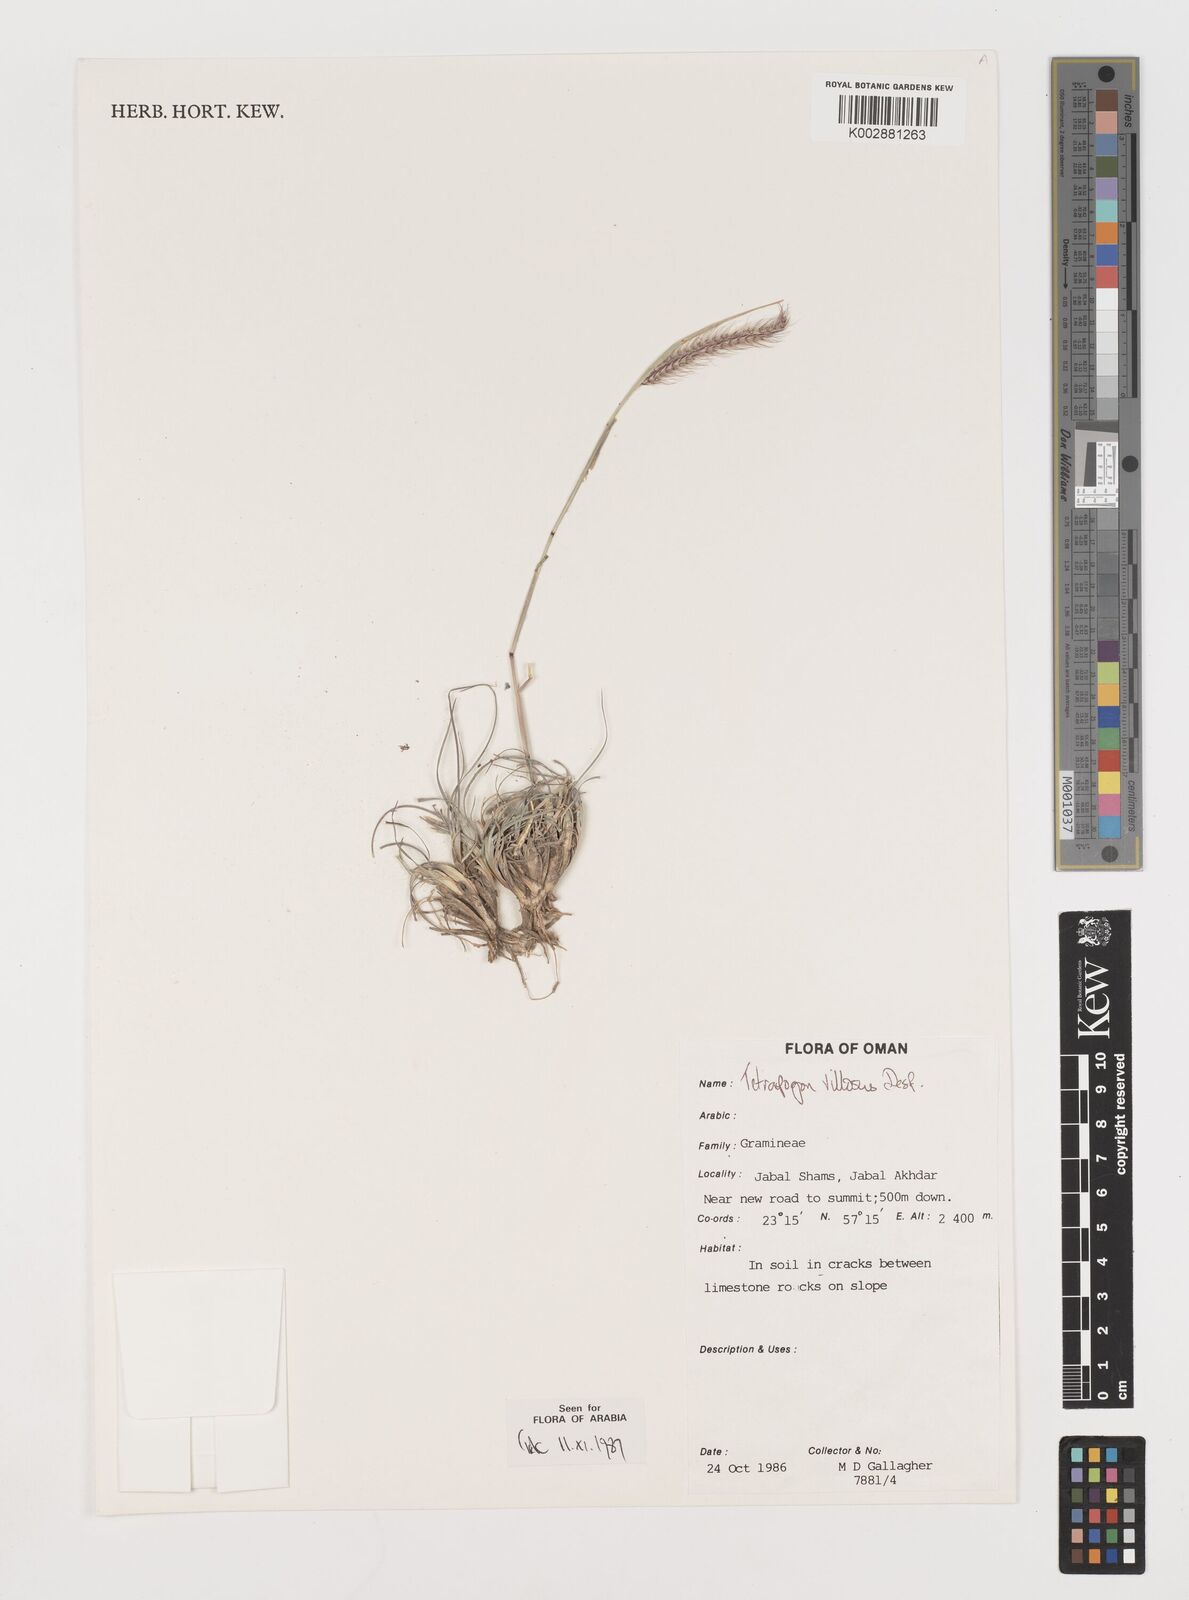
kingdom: Plantae
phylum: Tracheophyta
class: Liliopsida
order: Poales
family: Poaceae
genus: Tetrapogon
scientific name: Tetrapogon villosus
